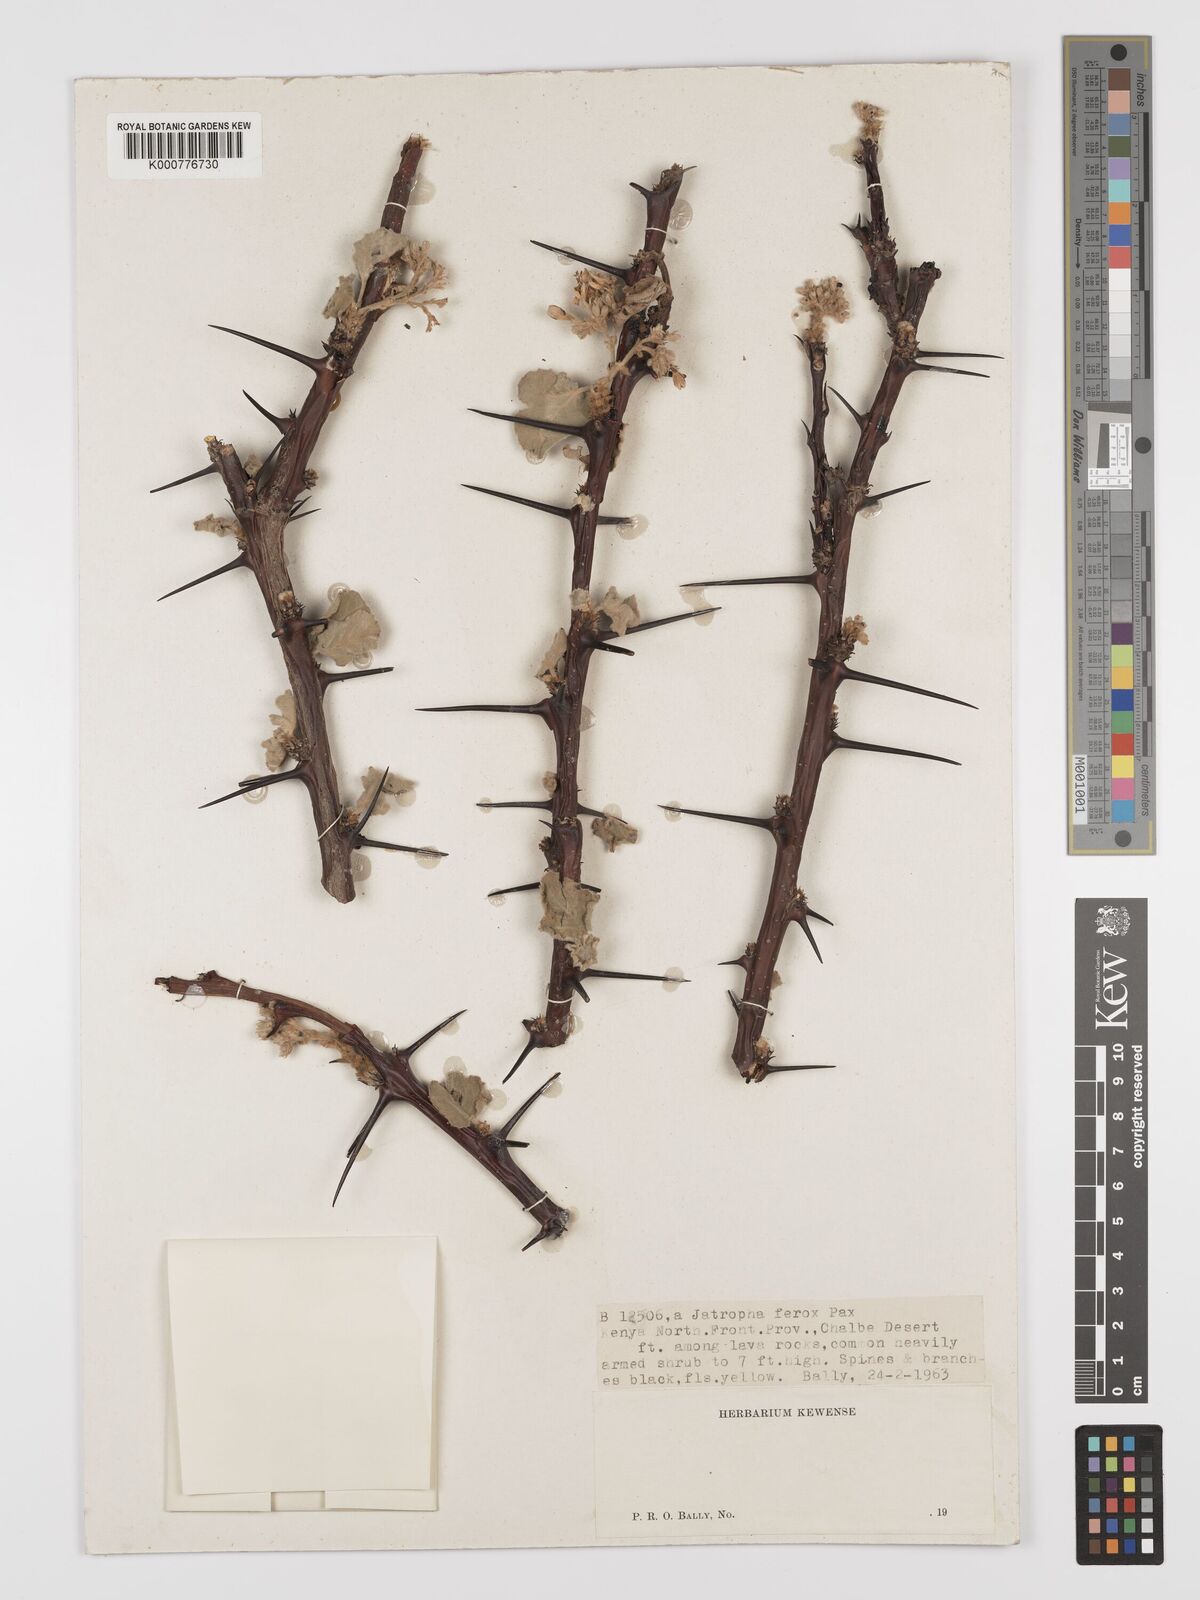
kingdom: Plantae
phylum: Tracheophyta
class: Magnoliopsida
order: Malpighiales
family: Euphorbiaceae
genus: Jatropha
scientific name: Jatropha dichtar
